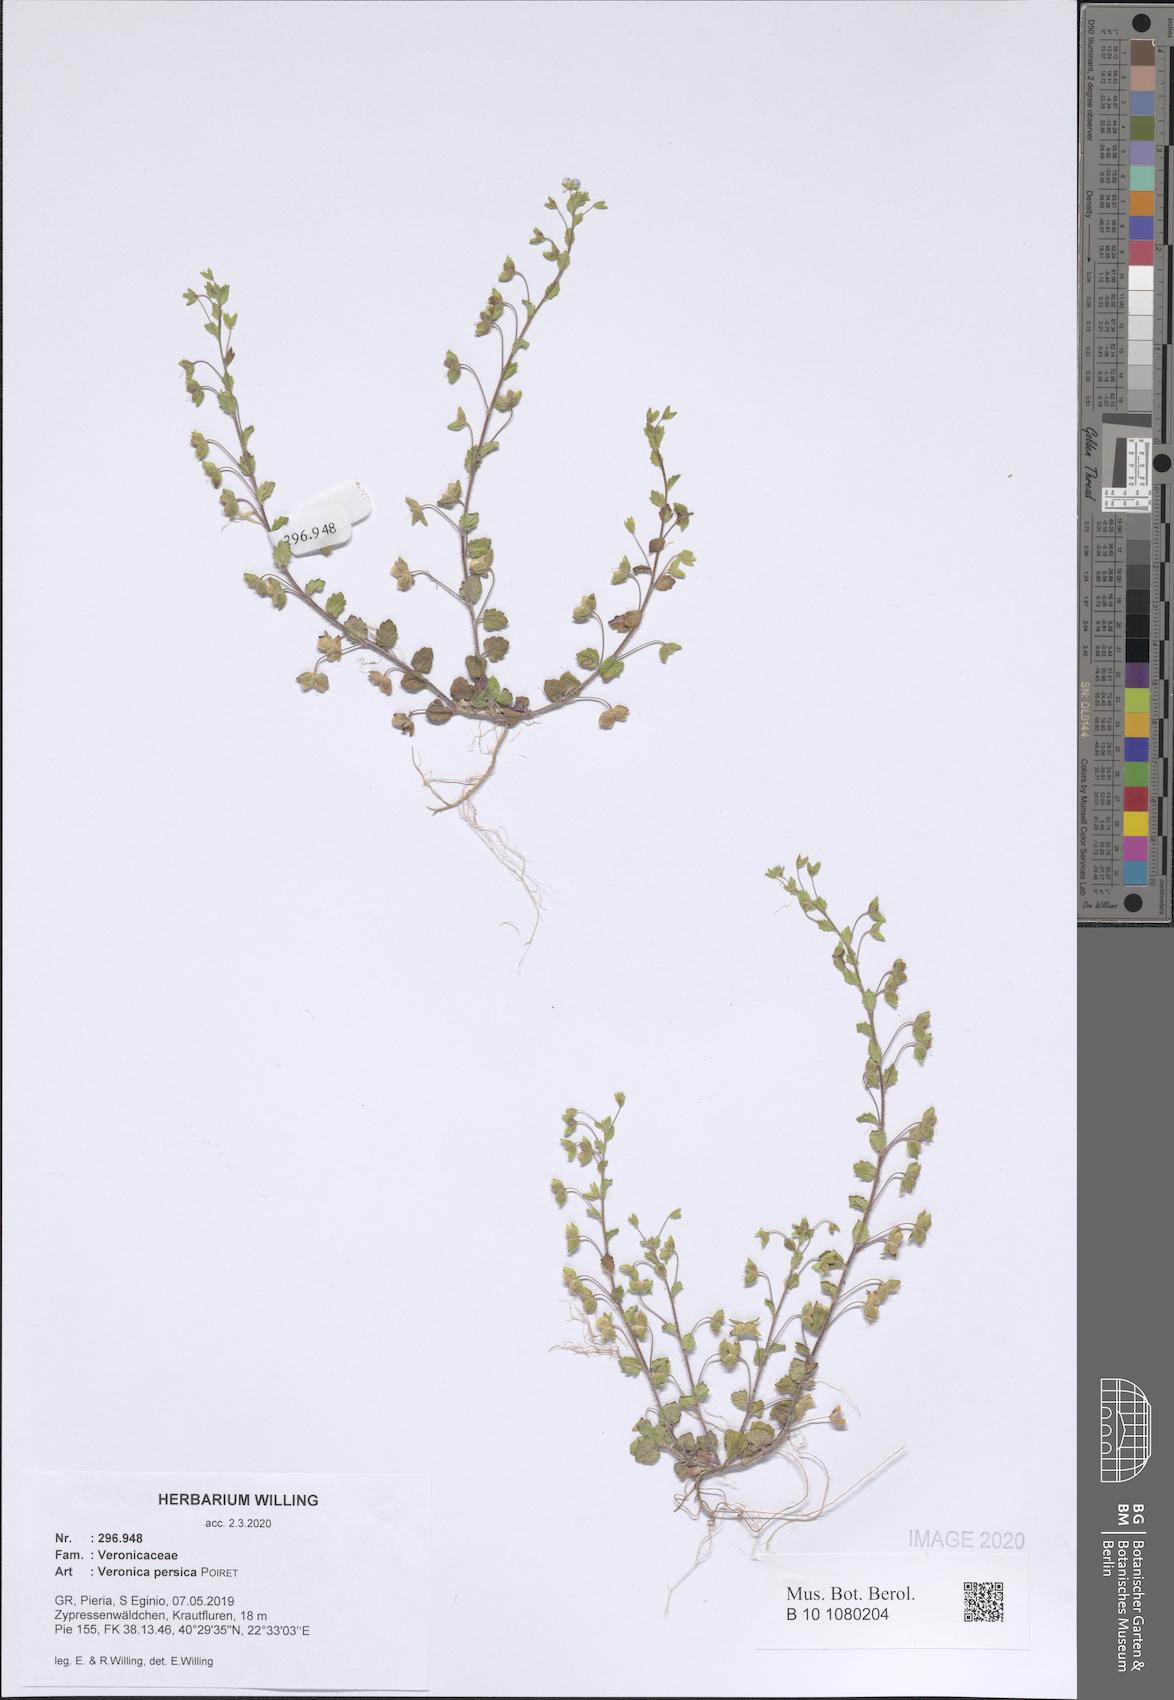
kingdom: Plantae
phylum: Tracheophyta
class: Magnoliopsida
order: Lamiales
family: Plantaginaceae
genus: Veronica
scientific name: Veronica persica
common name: Common field-speedwell
